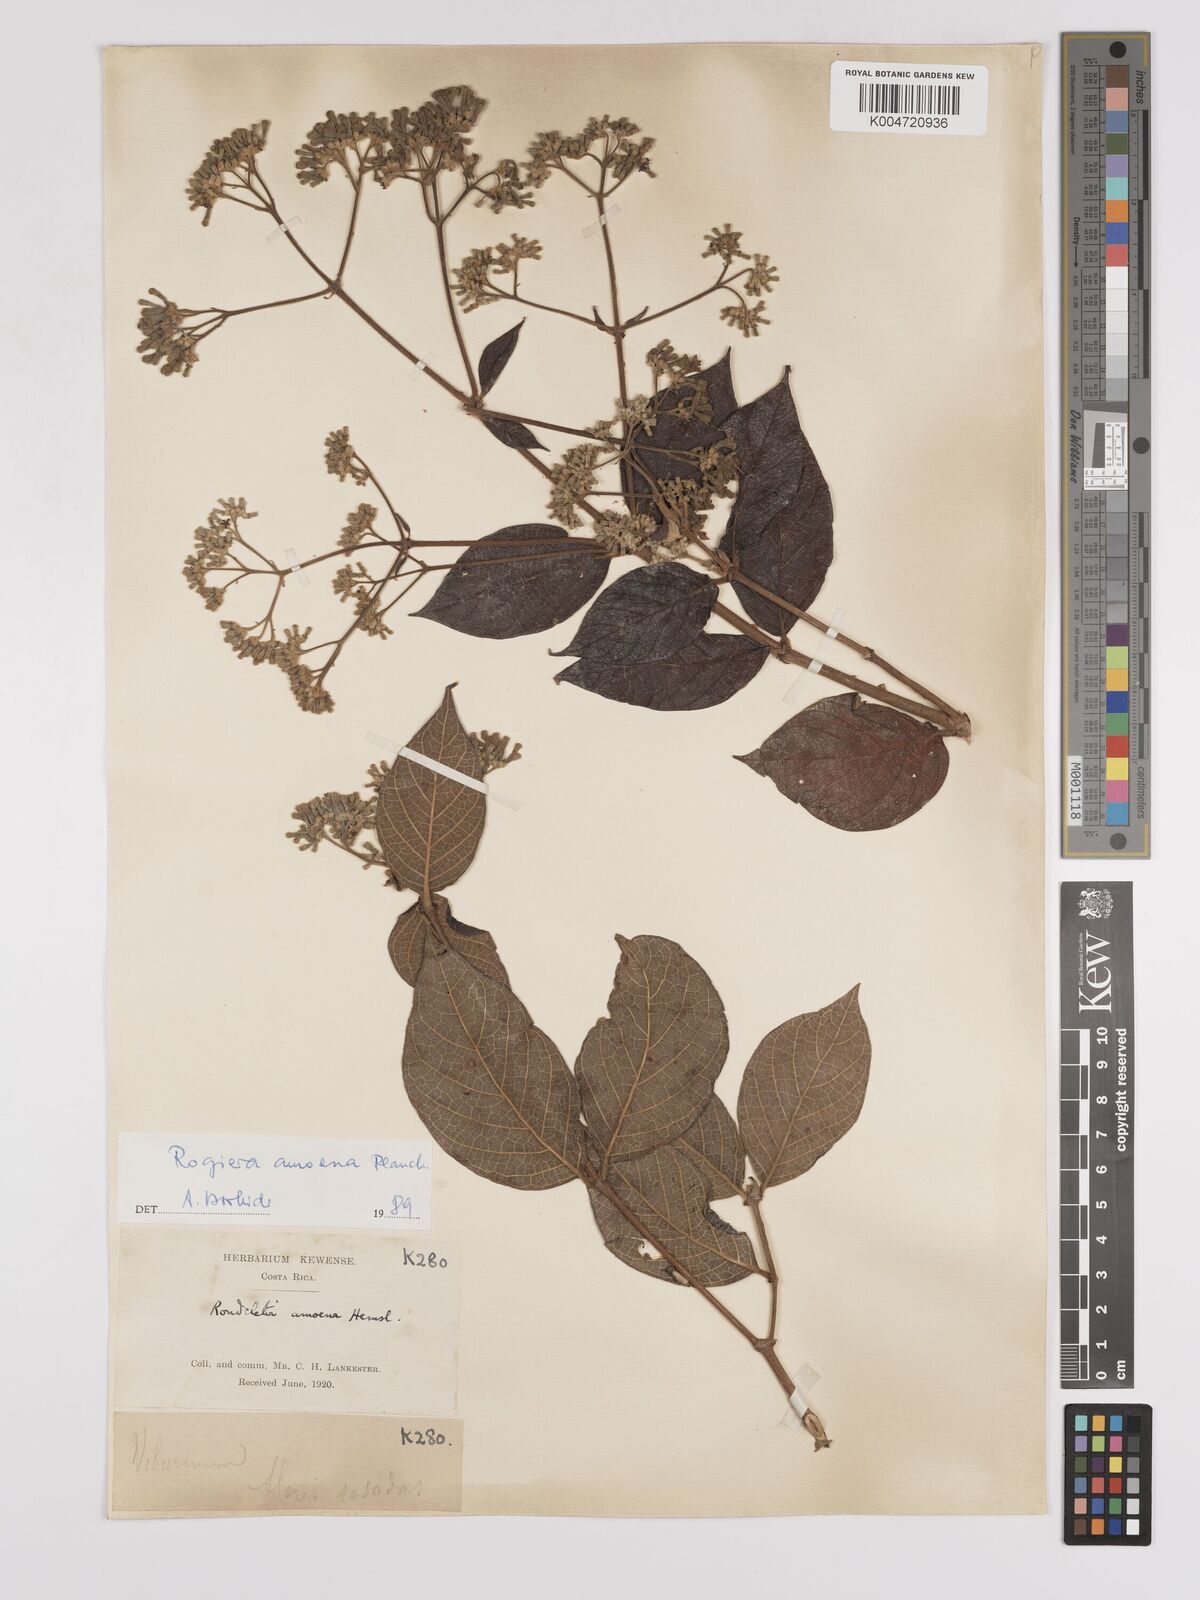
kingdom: Plantae
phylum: Tracheophyta
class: Magnoliopsida
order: Gentianales
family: Rubiaceae
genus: Rogiera
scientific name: Rogiera amoena
